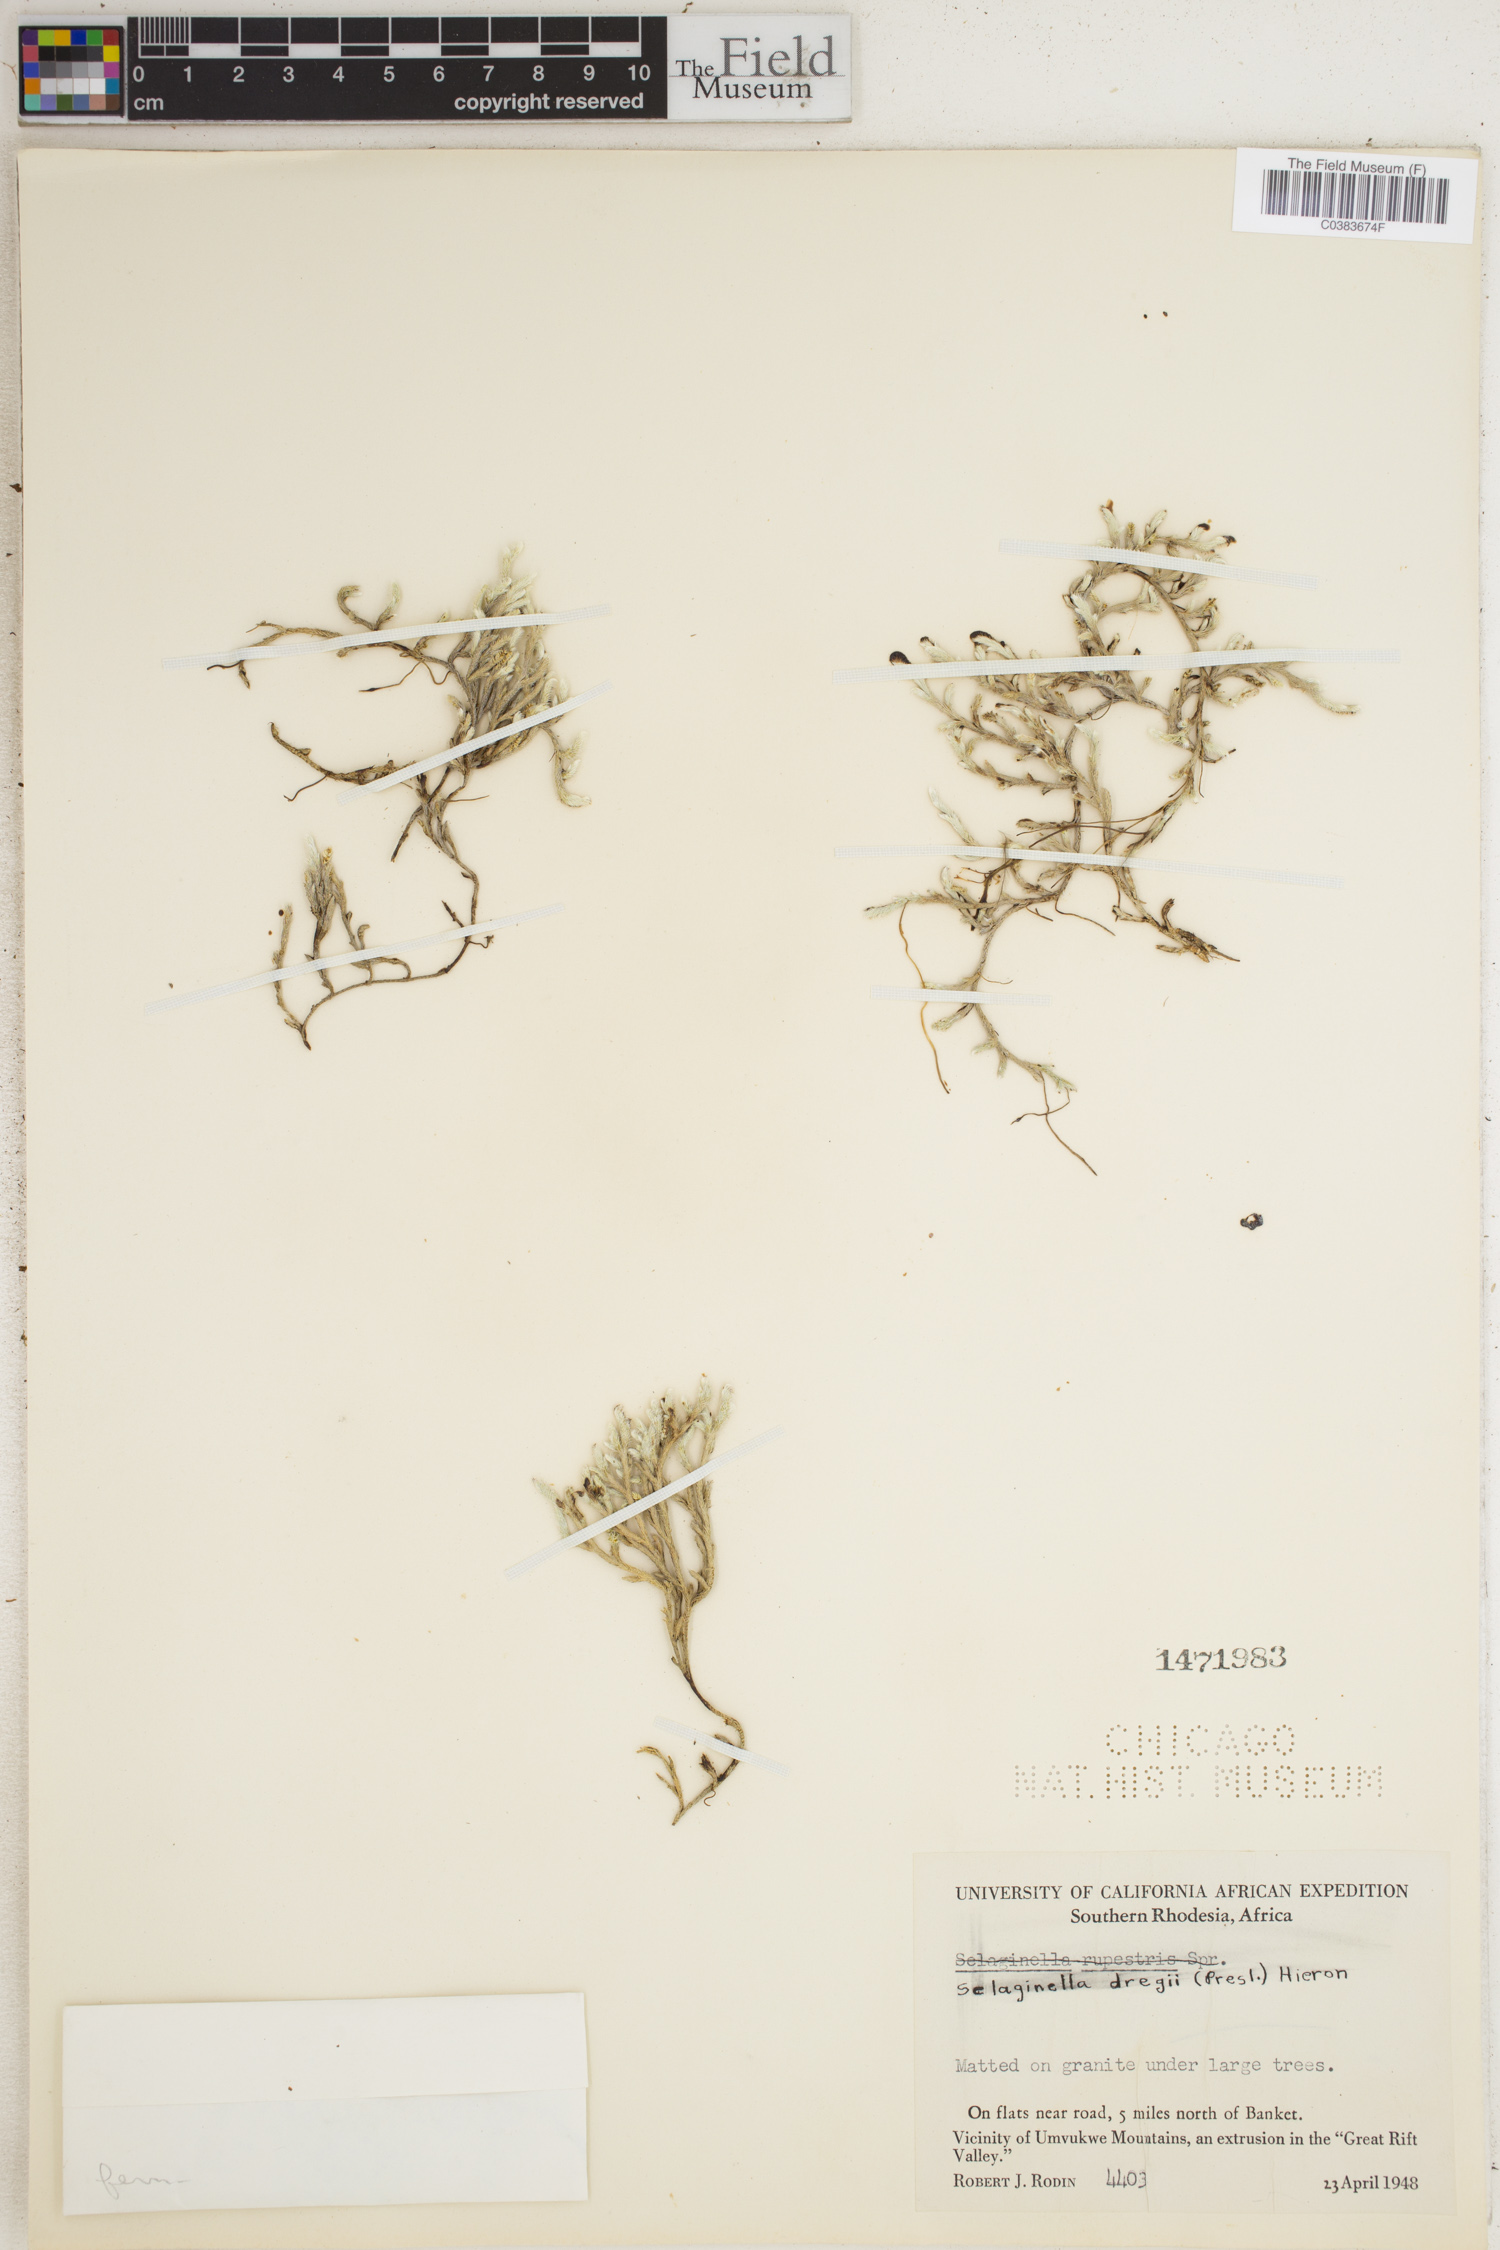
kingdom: Plantae
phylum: Tracheophyta
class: Lycopodiopsida
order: Selaginellales
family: Selaginellaceae
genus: Selaginella
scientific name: Selaginella dregei
